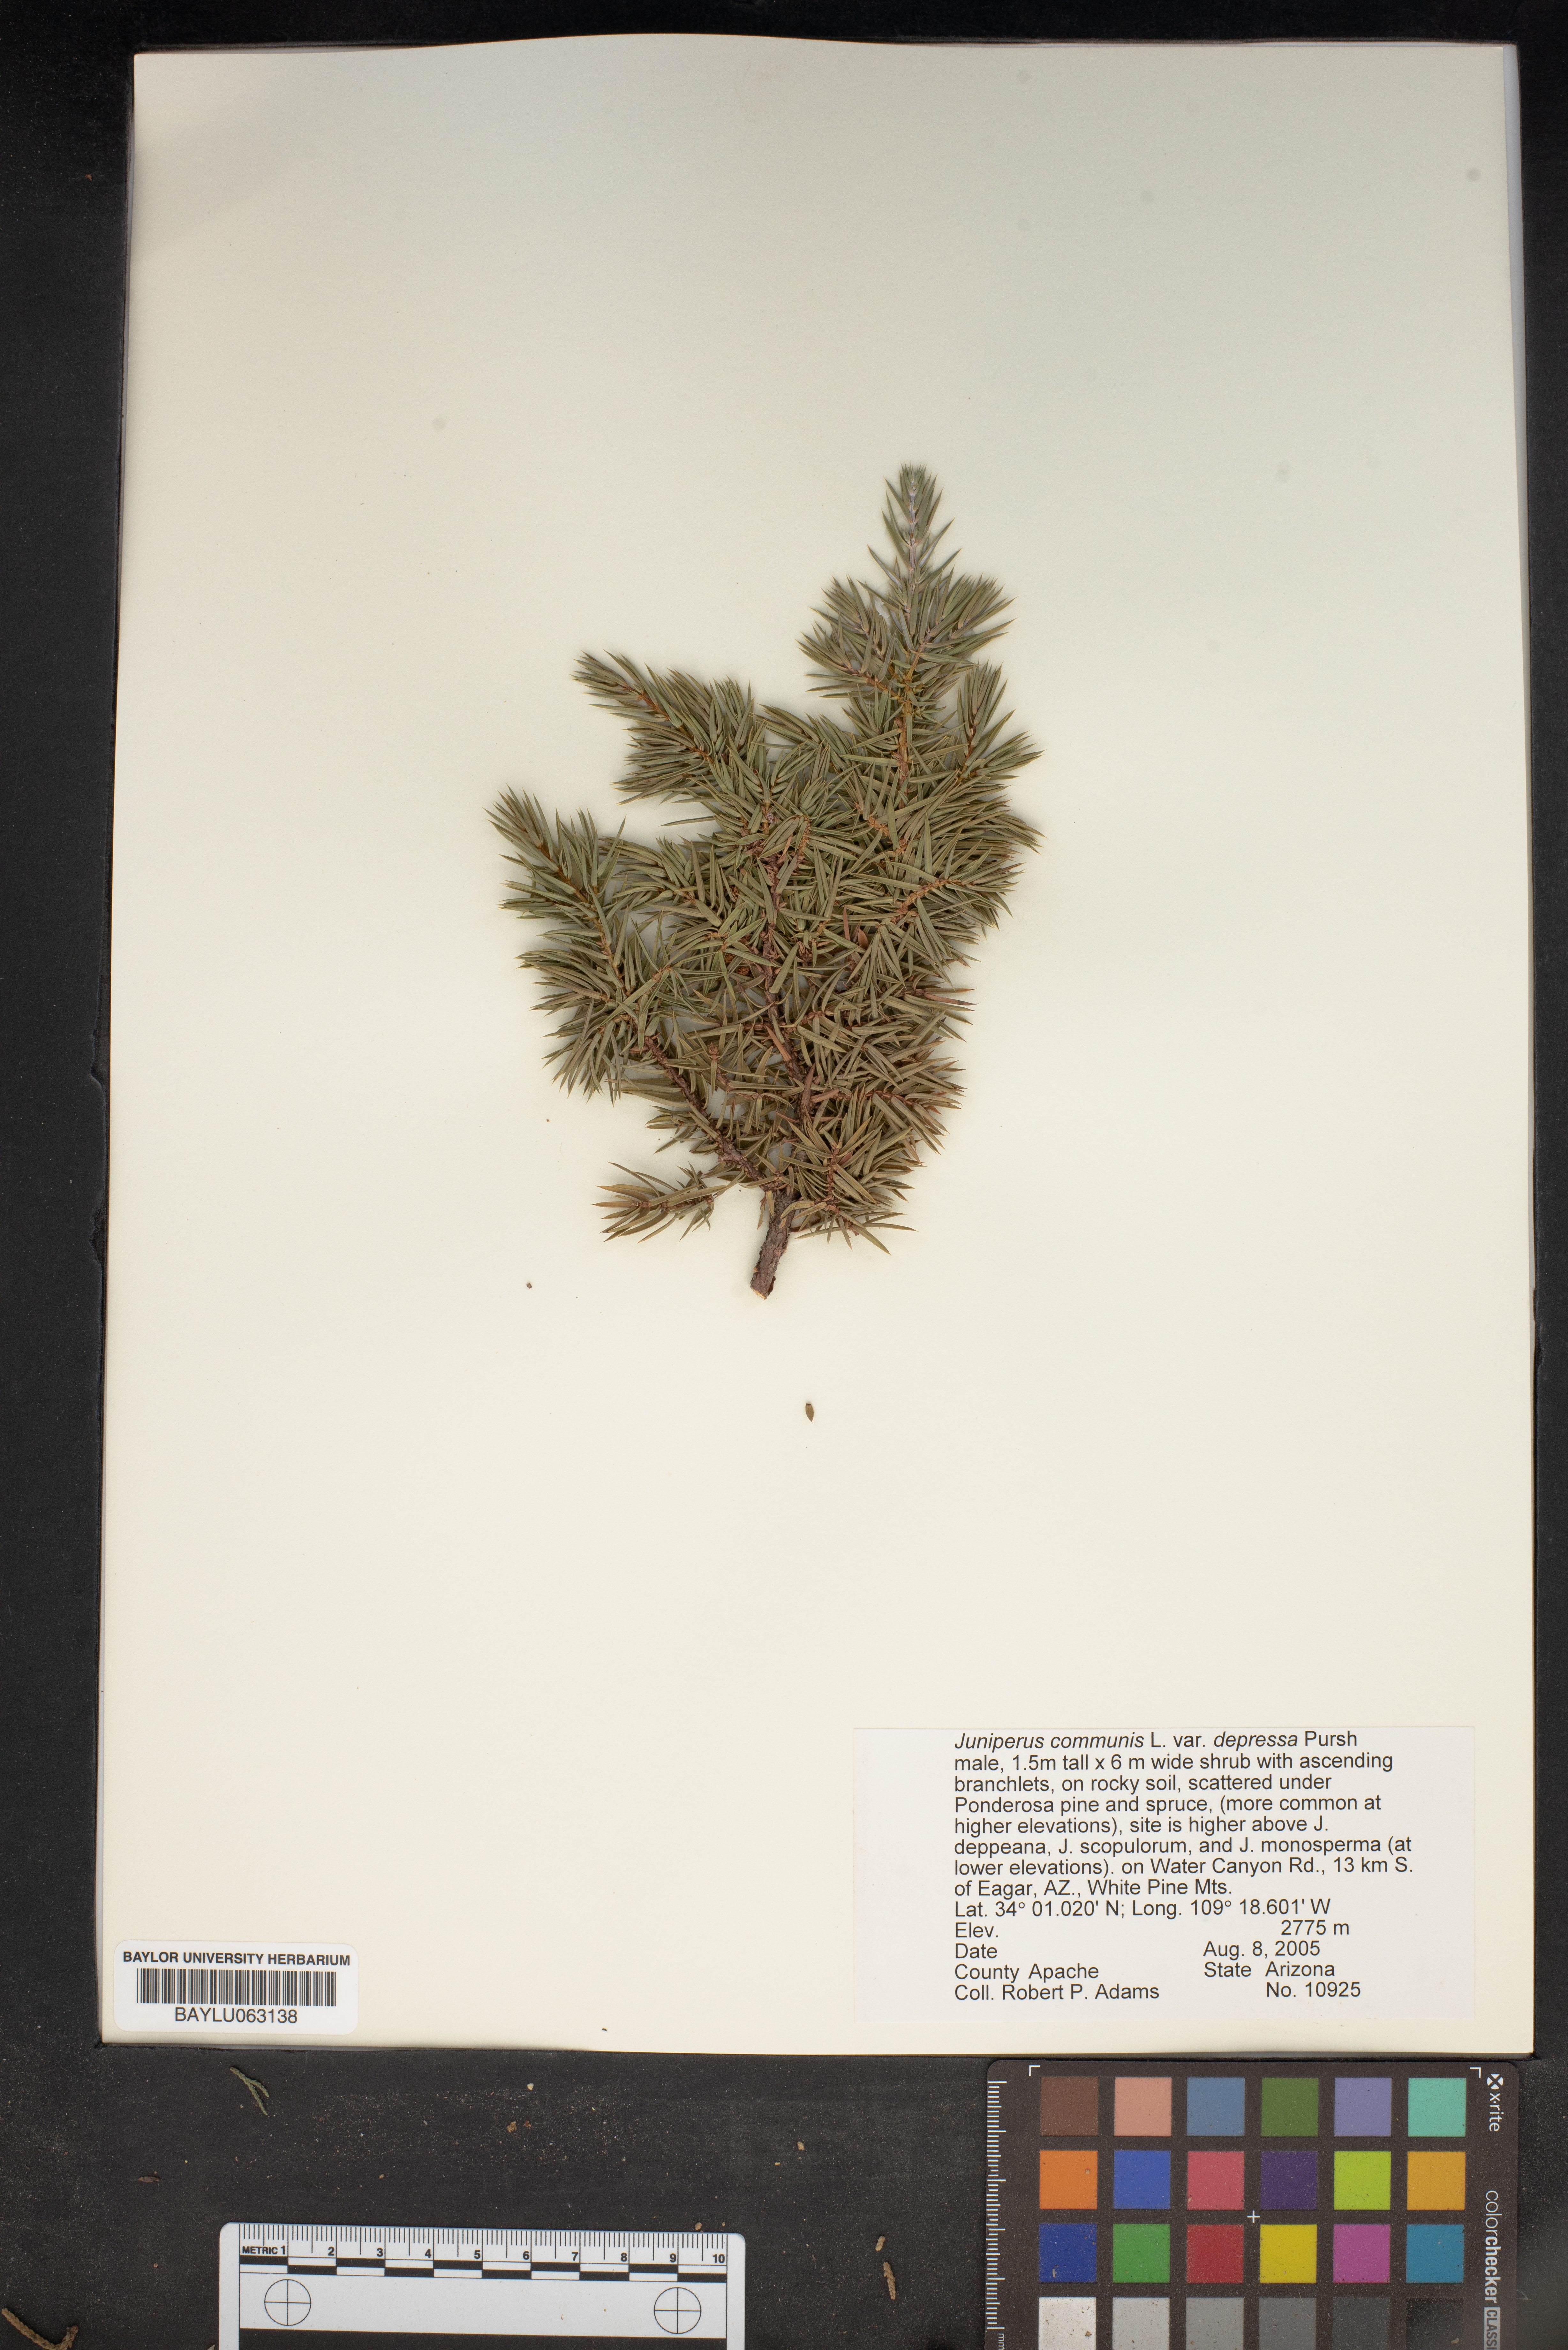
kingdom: Plantae
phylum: Tracheophyta
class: Pinopsida
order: Pinales
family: Cupressaceae
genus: Juniperus
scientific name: Juniperus communis
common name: Common juniper
